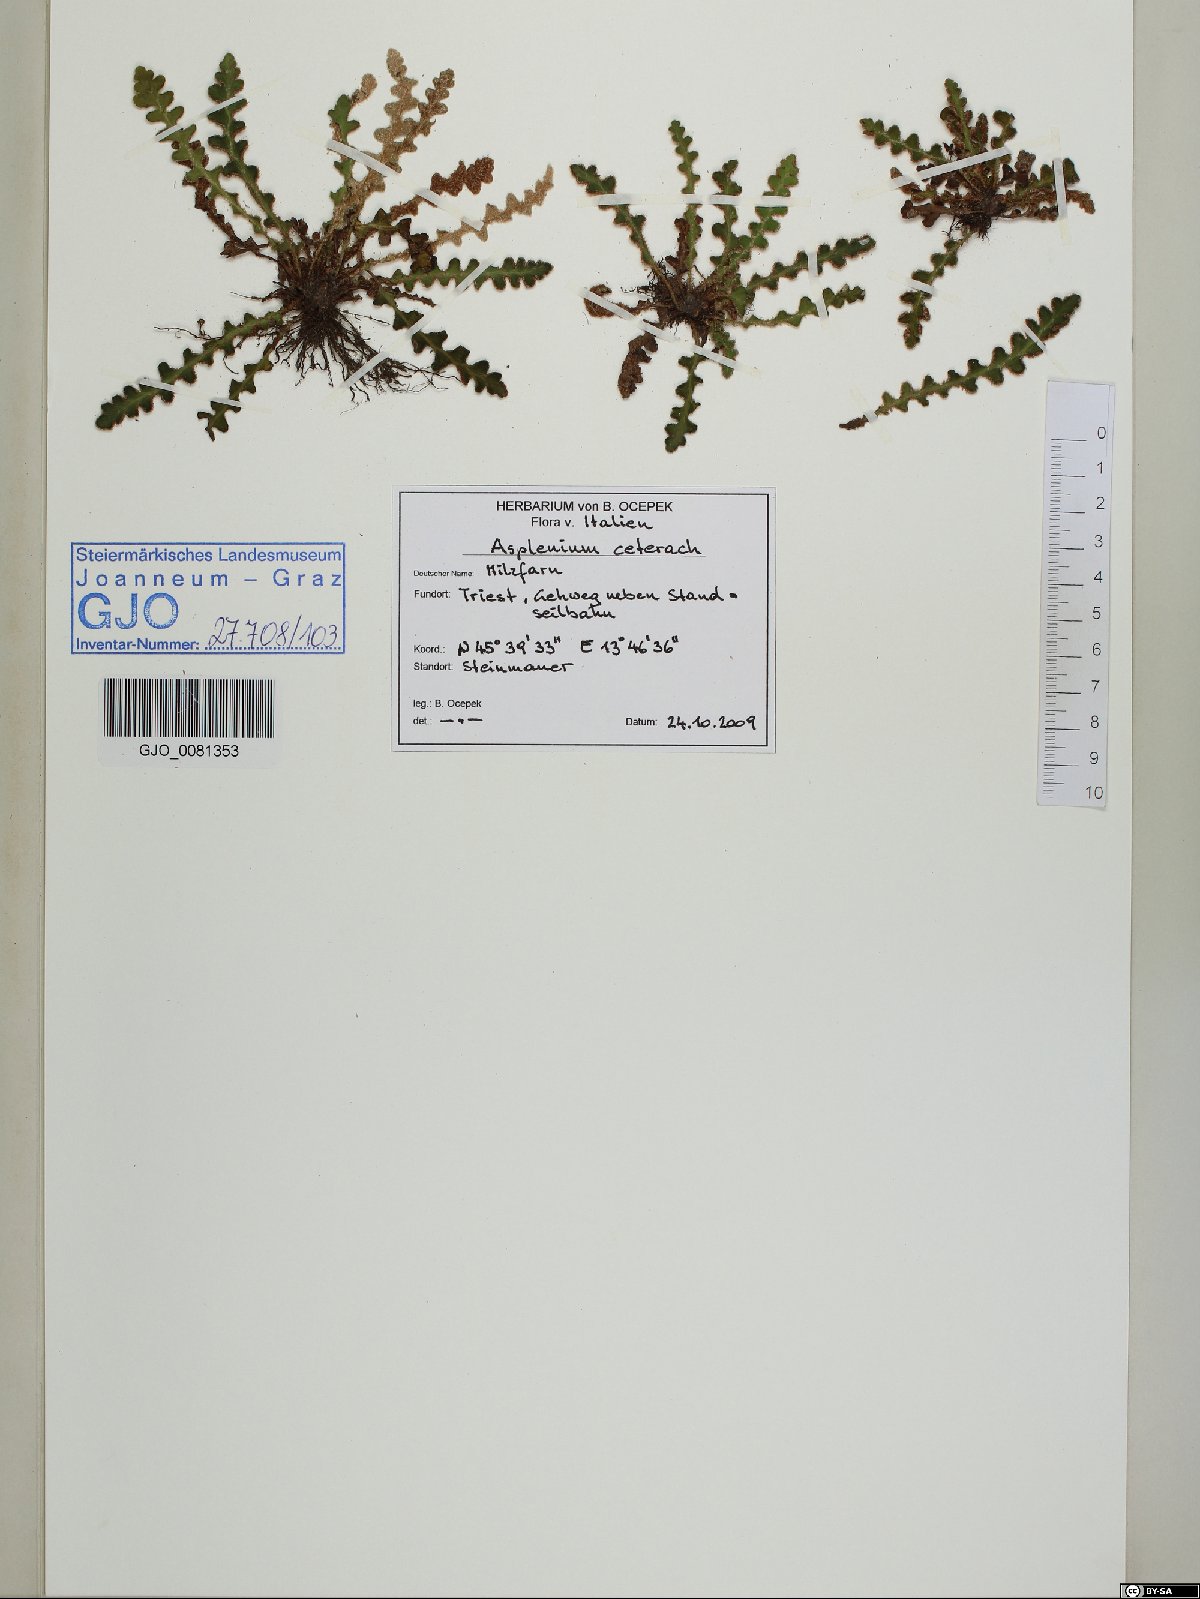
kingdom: Plantae
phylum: Tracheophyta
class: Polypodiopsida
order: Polypodiales
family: Aspleniaceae
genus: Asplenium
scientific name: Asplenium ceterach
